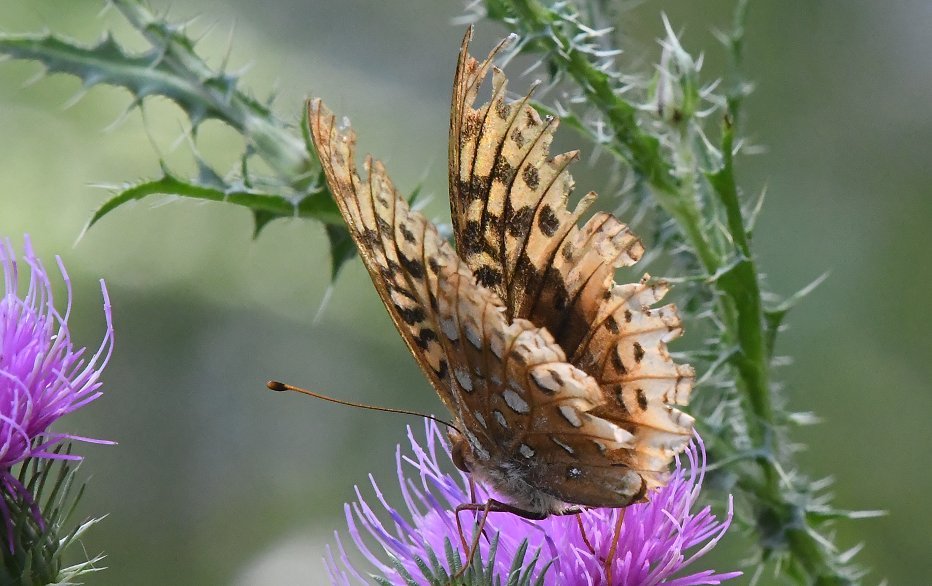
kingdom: Animalia
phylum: Arthropoda
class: Insecta
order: Lepidoptera
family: Nymphalidae
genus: Speyeria
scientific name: Speyeria cybele
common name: Great Spangled Fritillary
